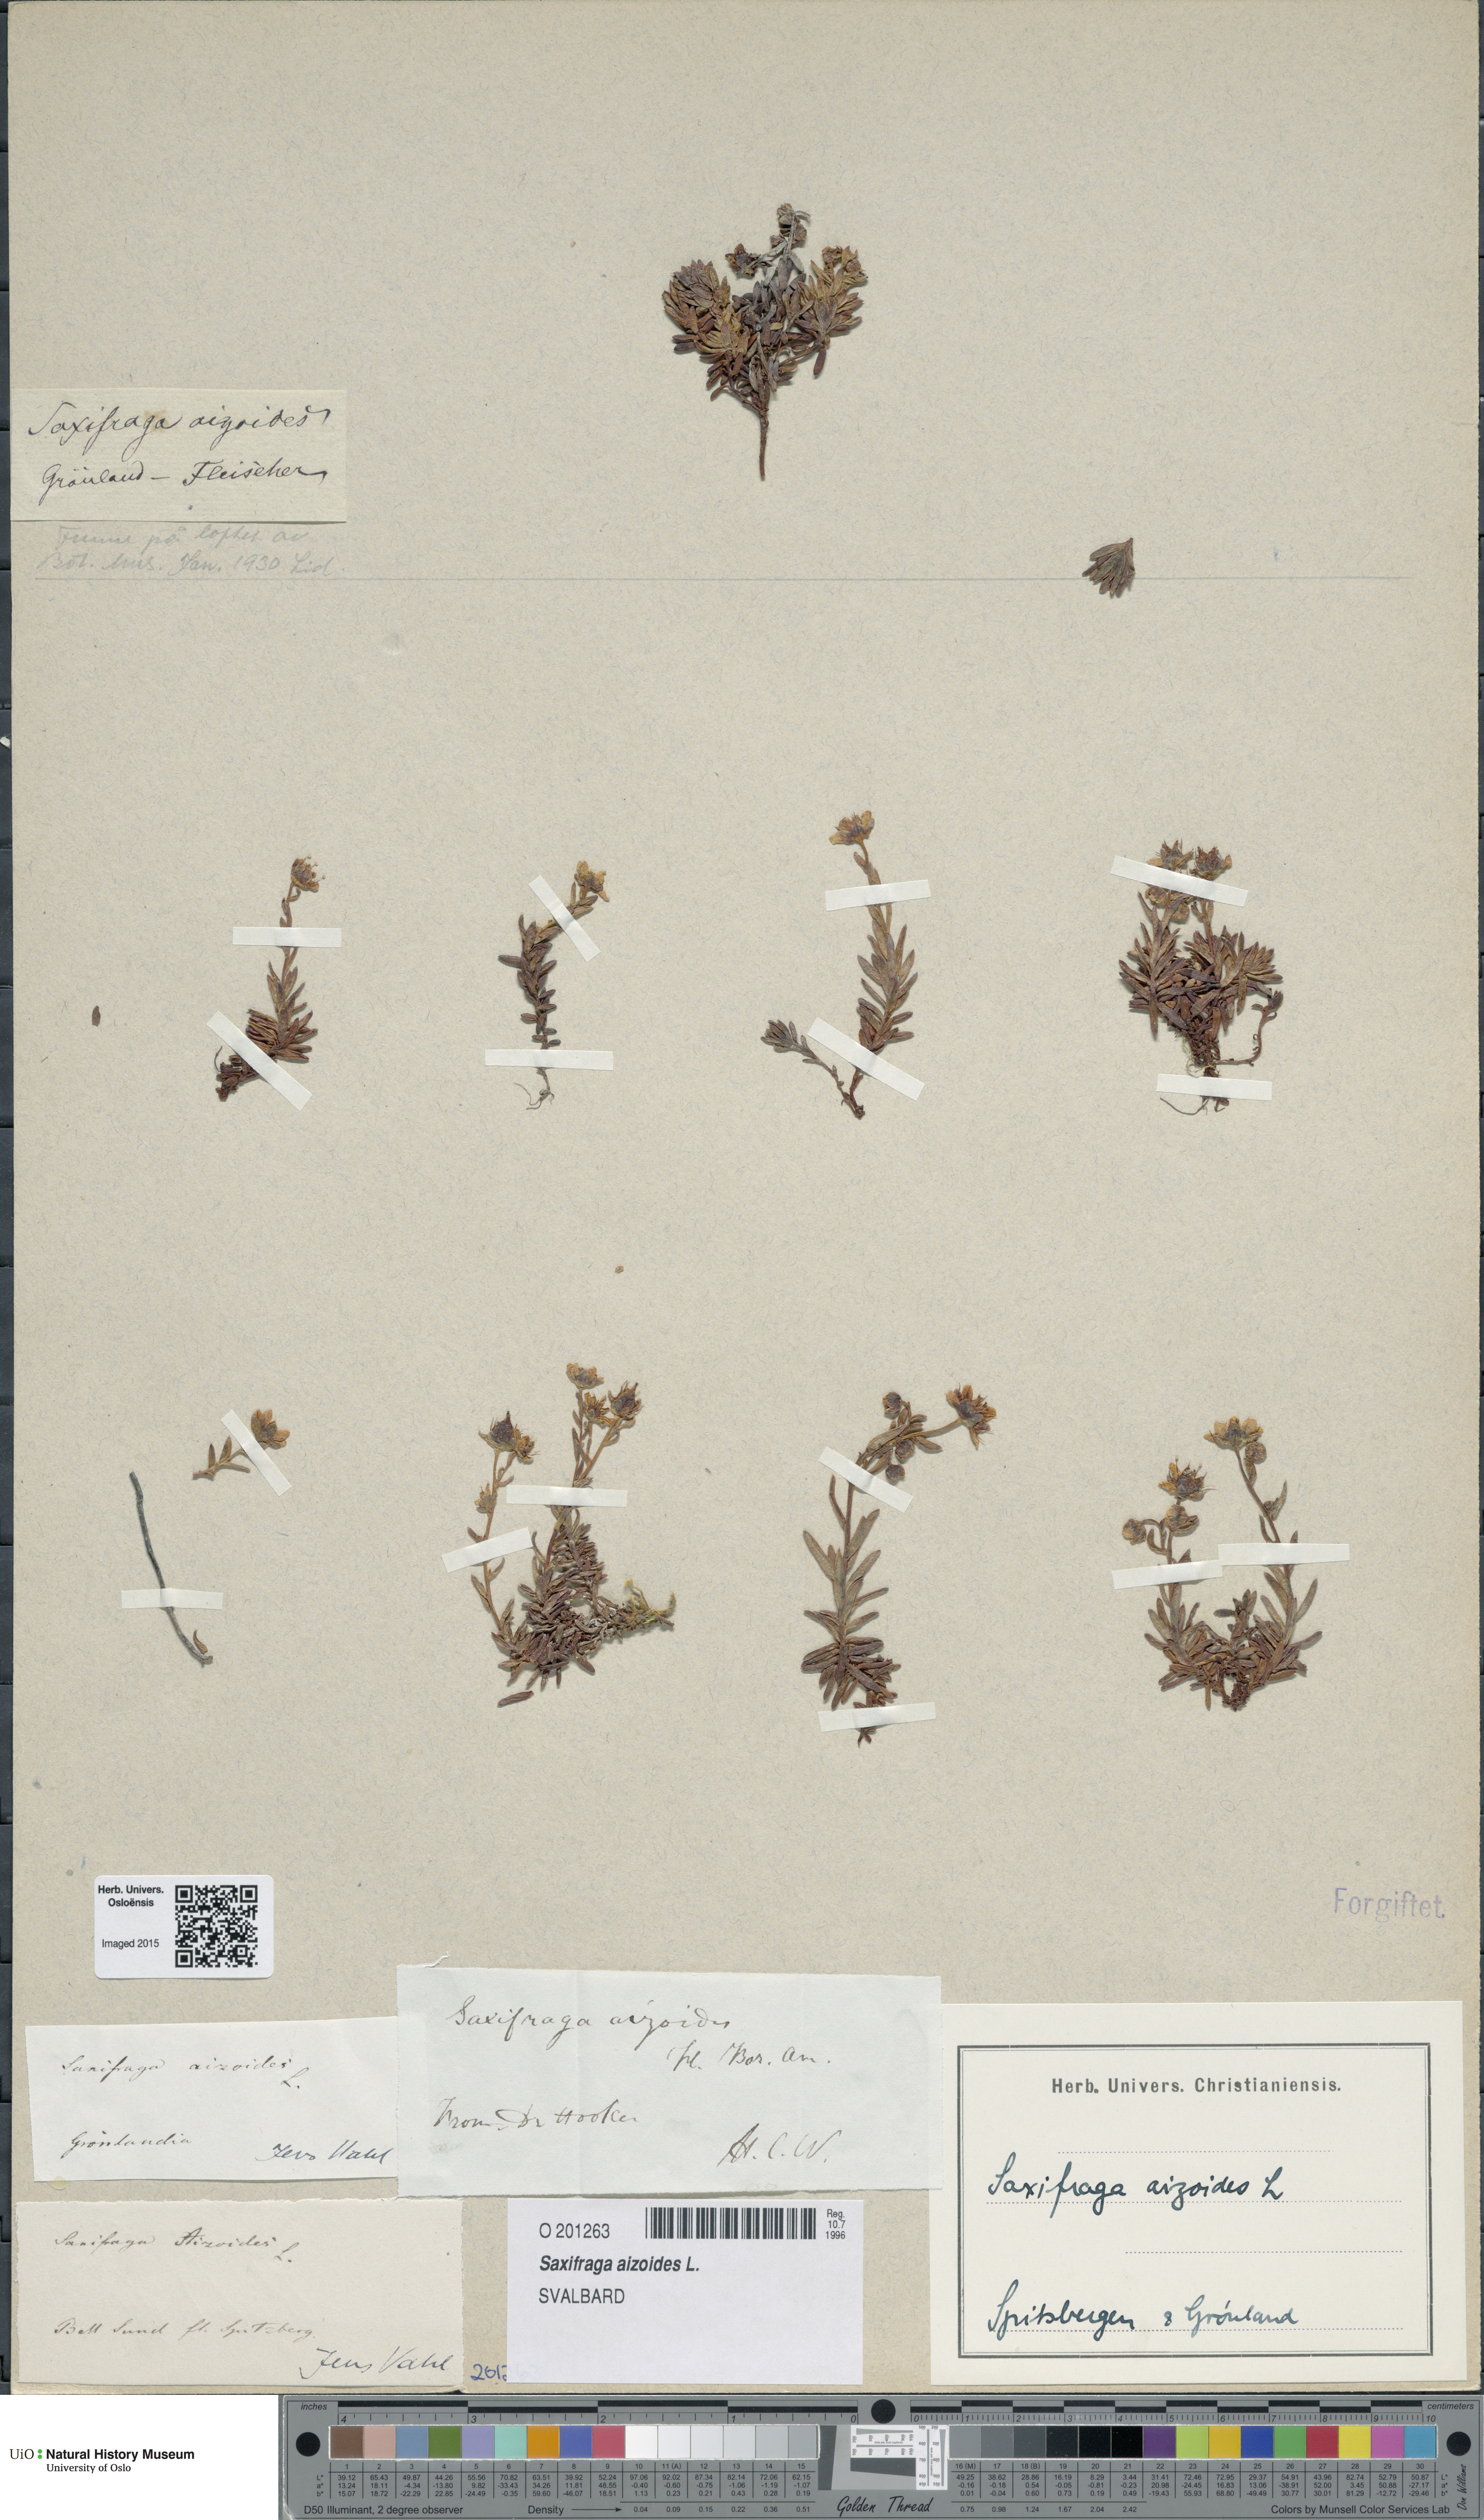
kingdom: Plantae
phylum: Tracheophyta
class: Magnoliopsida
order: Saxifragales
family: Saxifragaceae
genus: Saxifraga
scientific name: Saxifraga aizoides
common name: Yellow mountain saxifrage
